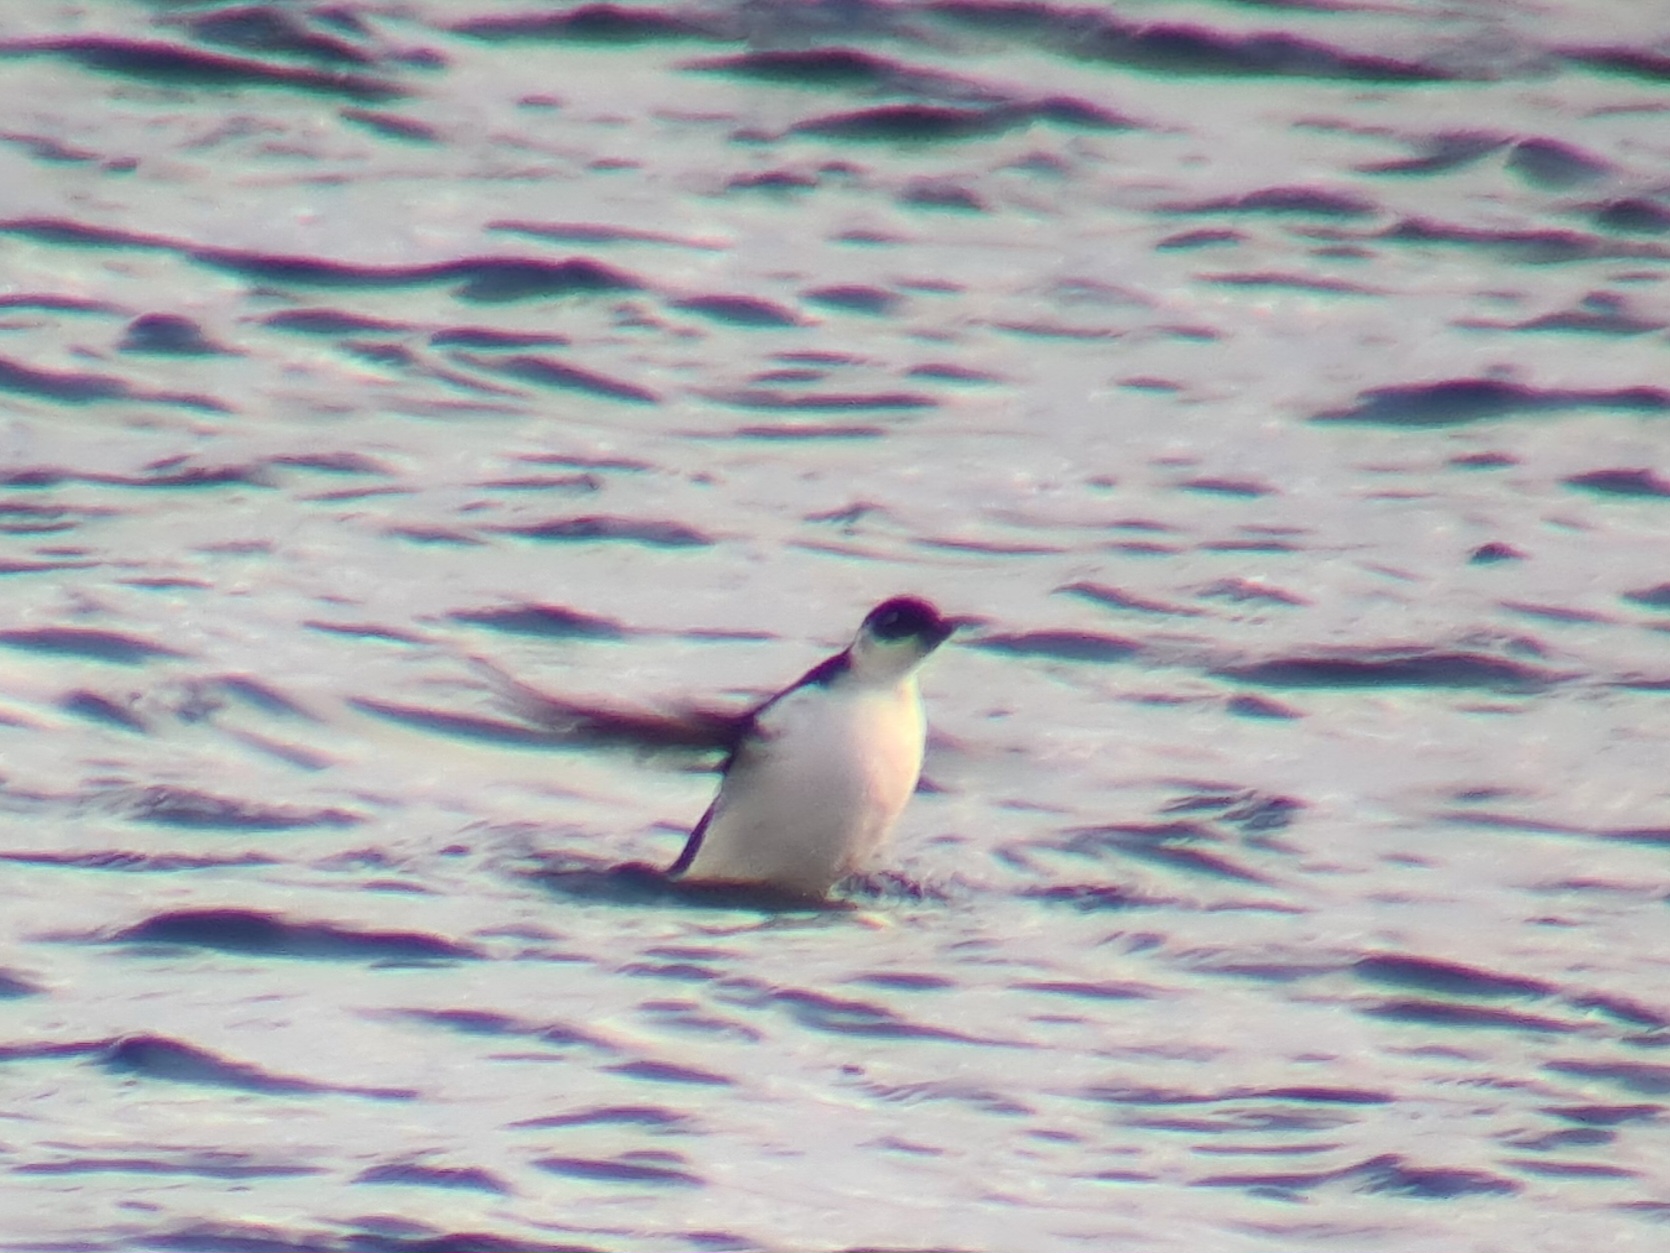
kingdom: Animalia
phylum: Chordata
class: Aves
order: Charadriiformes
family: Alcidae
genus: Alle
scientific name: Alle alle
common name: Søkonge
